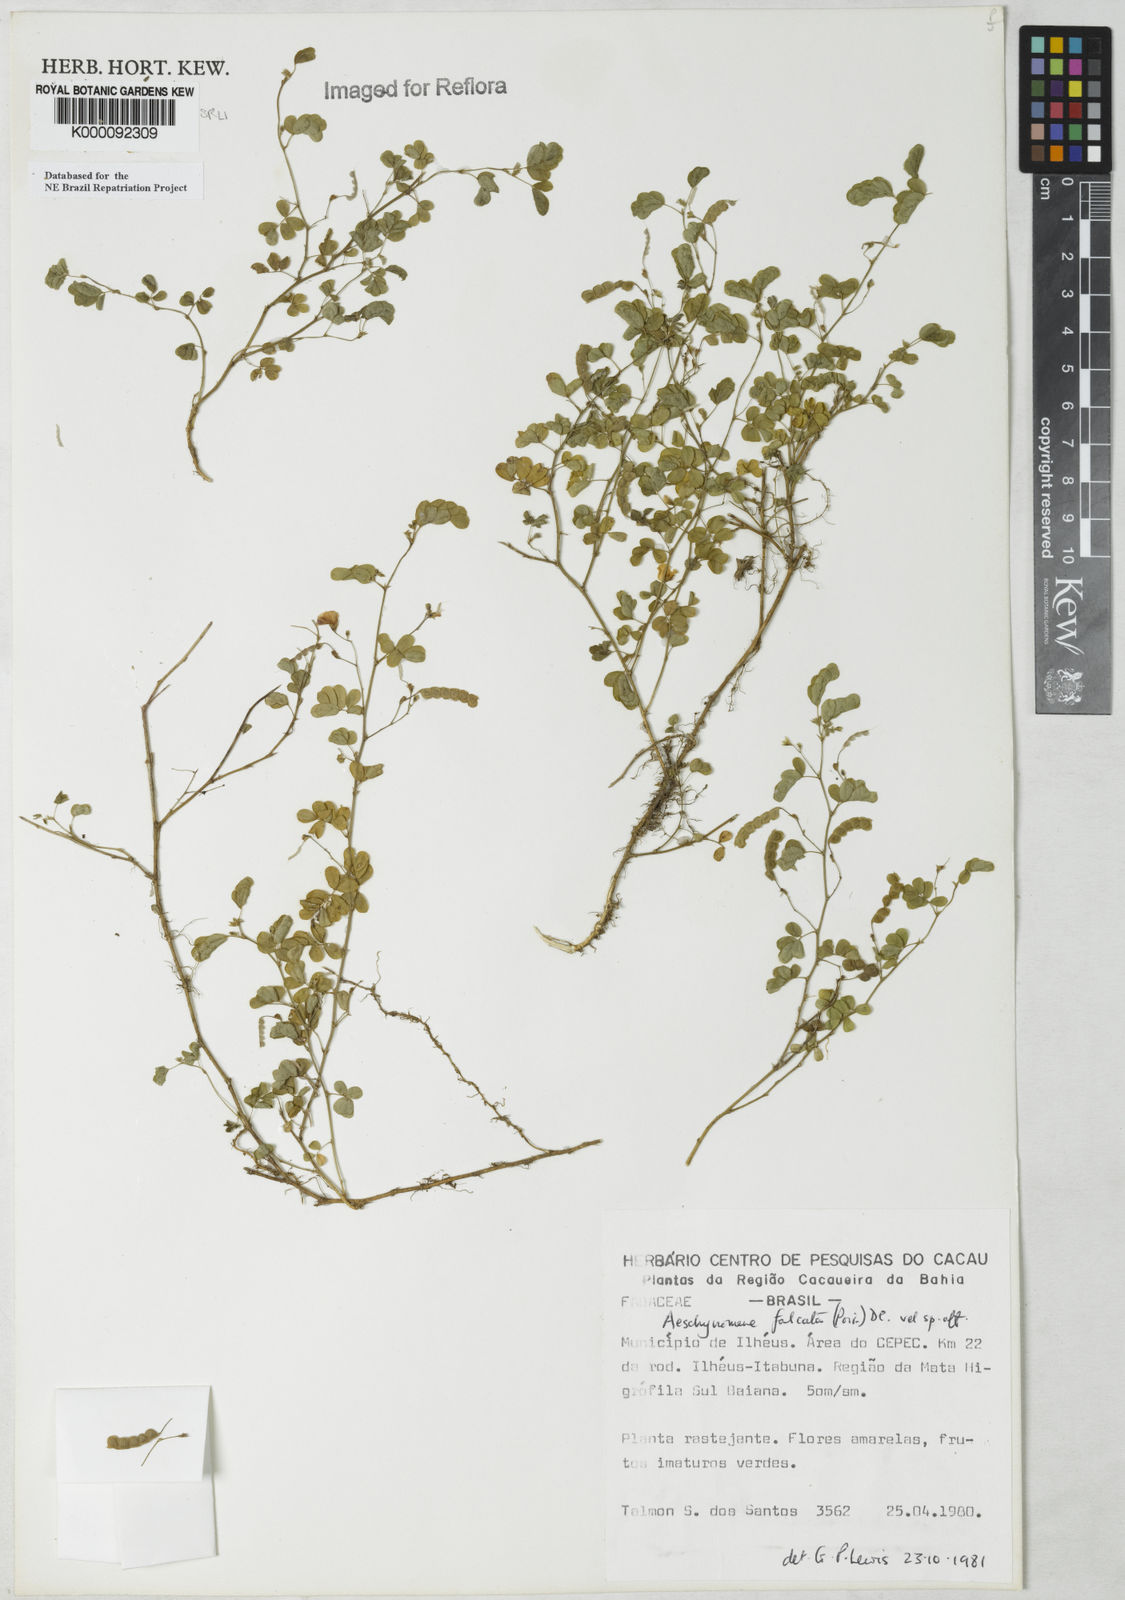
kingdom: Plantae
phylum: Tracheophyta
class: Magnoliopsida
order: Fabales
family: Fabaceae
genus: Ctenodon
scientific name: Ctenodon falcatus
